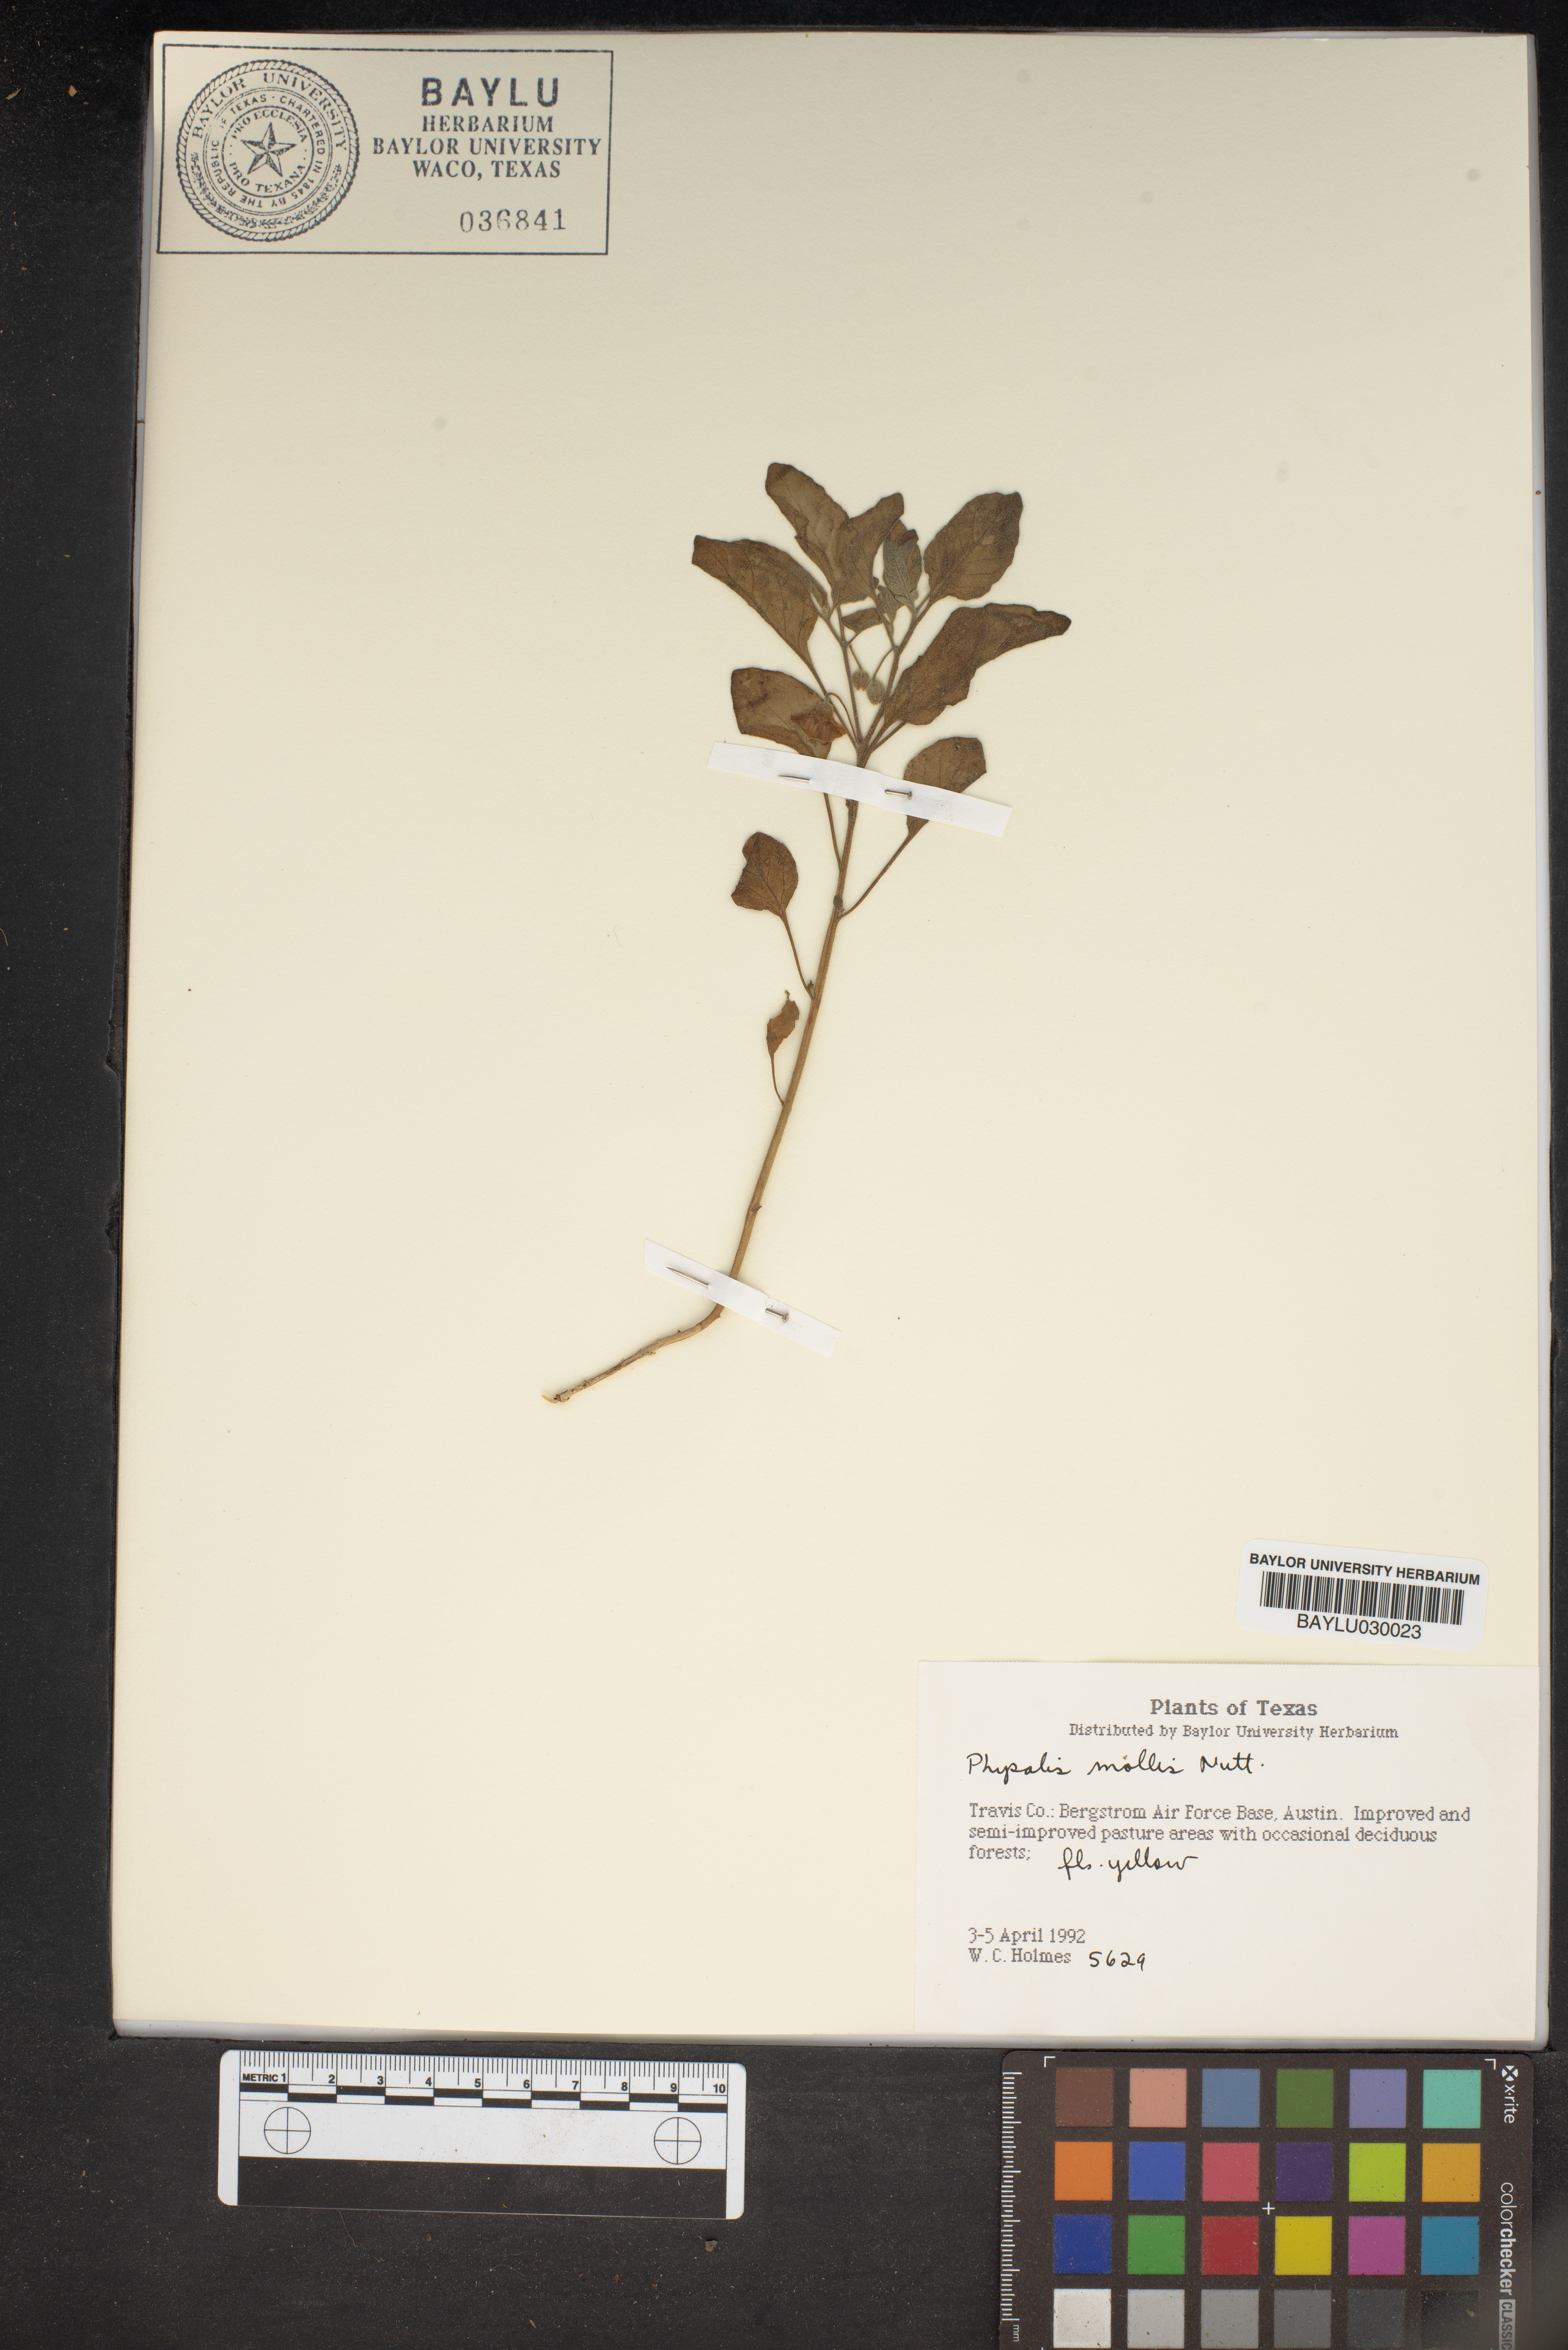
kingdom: Plantae
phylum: Tracheophyta
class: Magnoliopsida
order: Solanales
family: Solanaceae
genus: Physalis
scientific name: Physalis mollis
